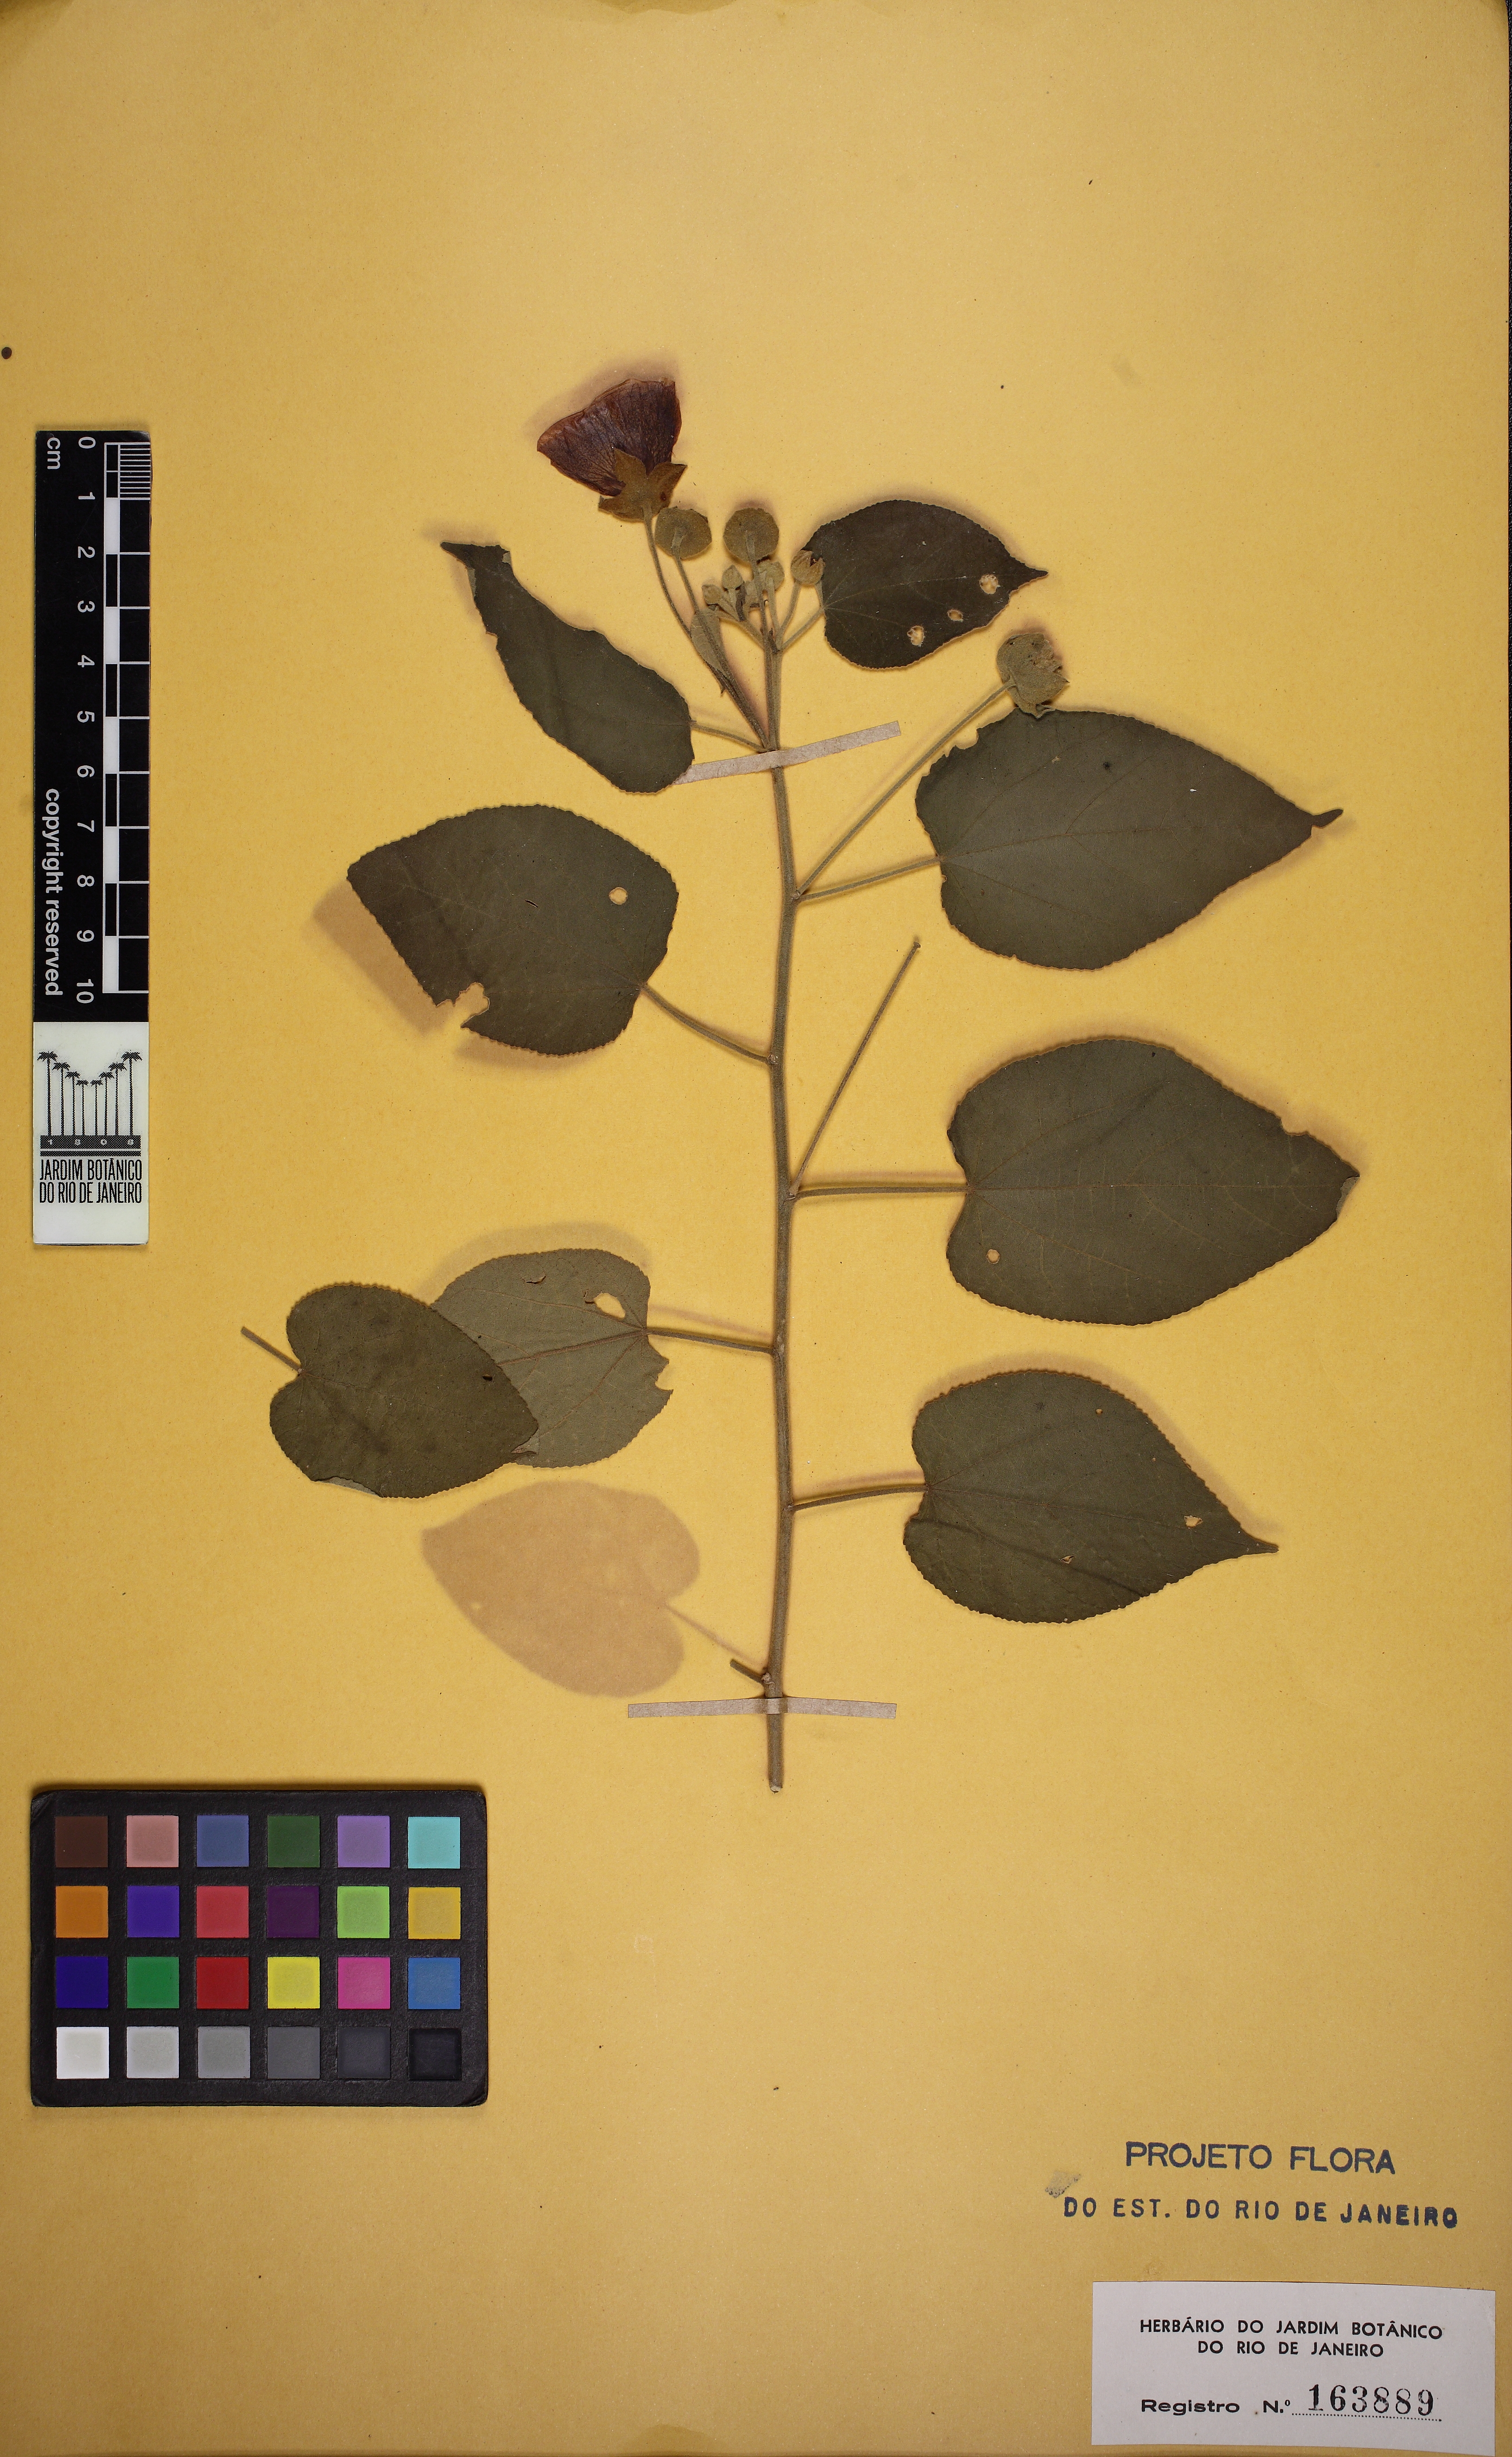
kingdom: Plantae
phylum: Tracheophyta
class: Magnoliopsida
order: Malvales
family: Malvaceae
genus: Abutilon
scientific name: Abutilon
